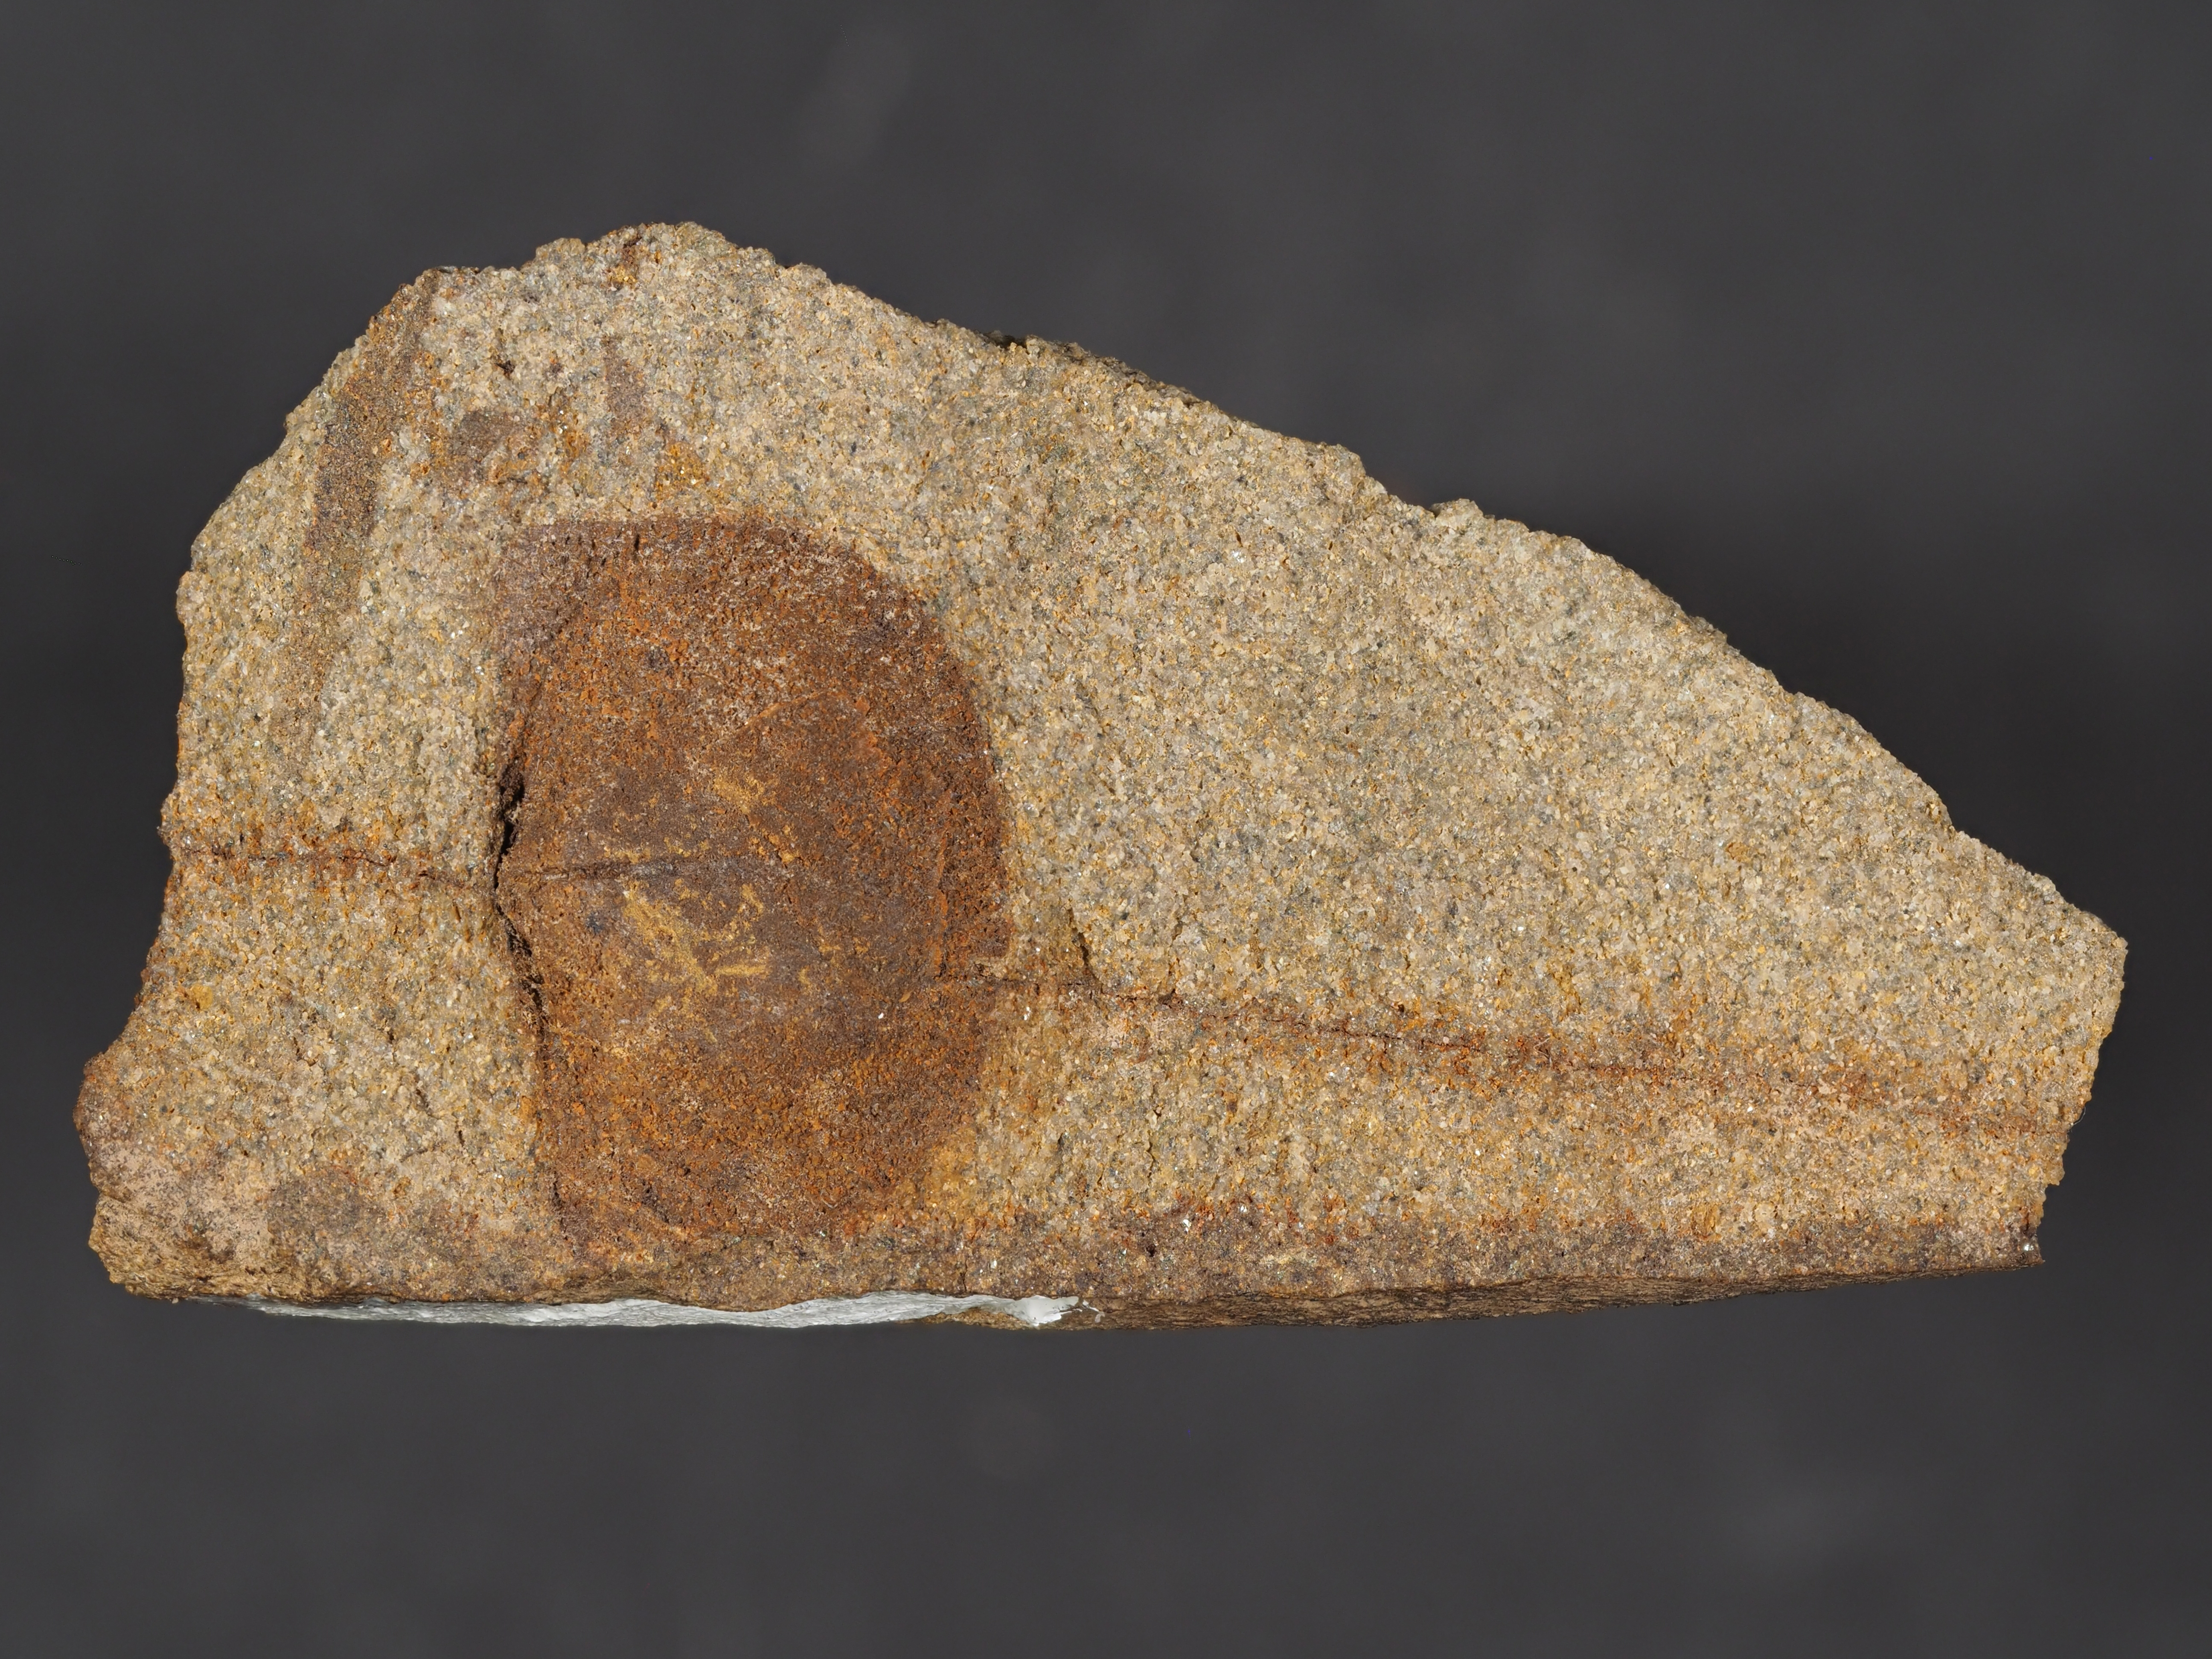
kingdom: Animalia
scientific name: Animalia
